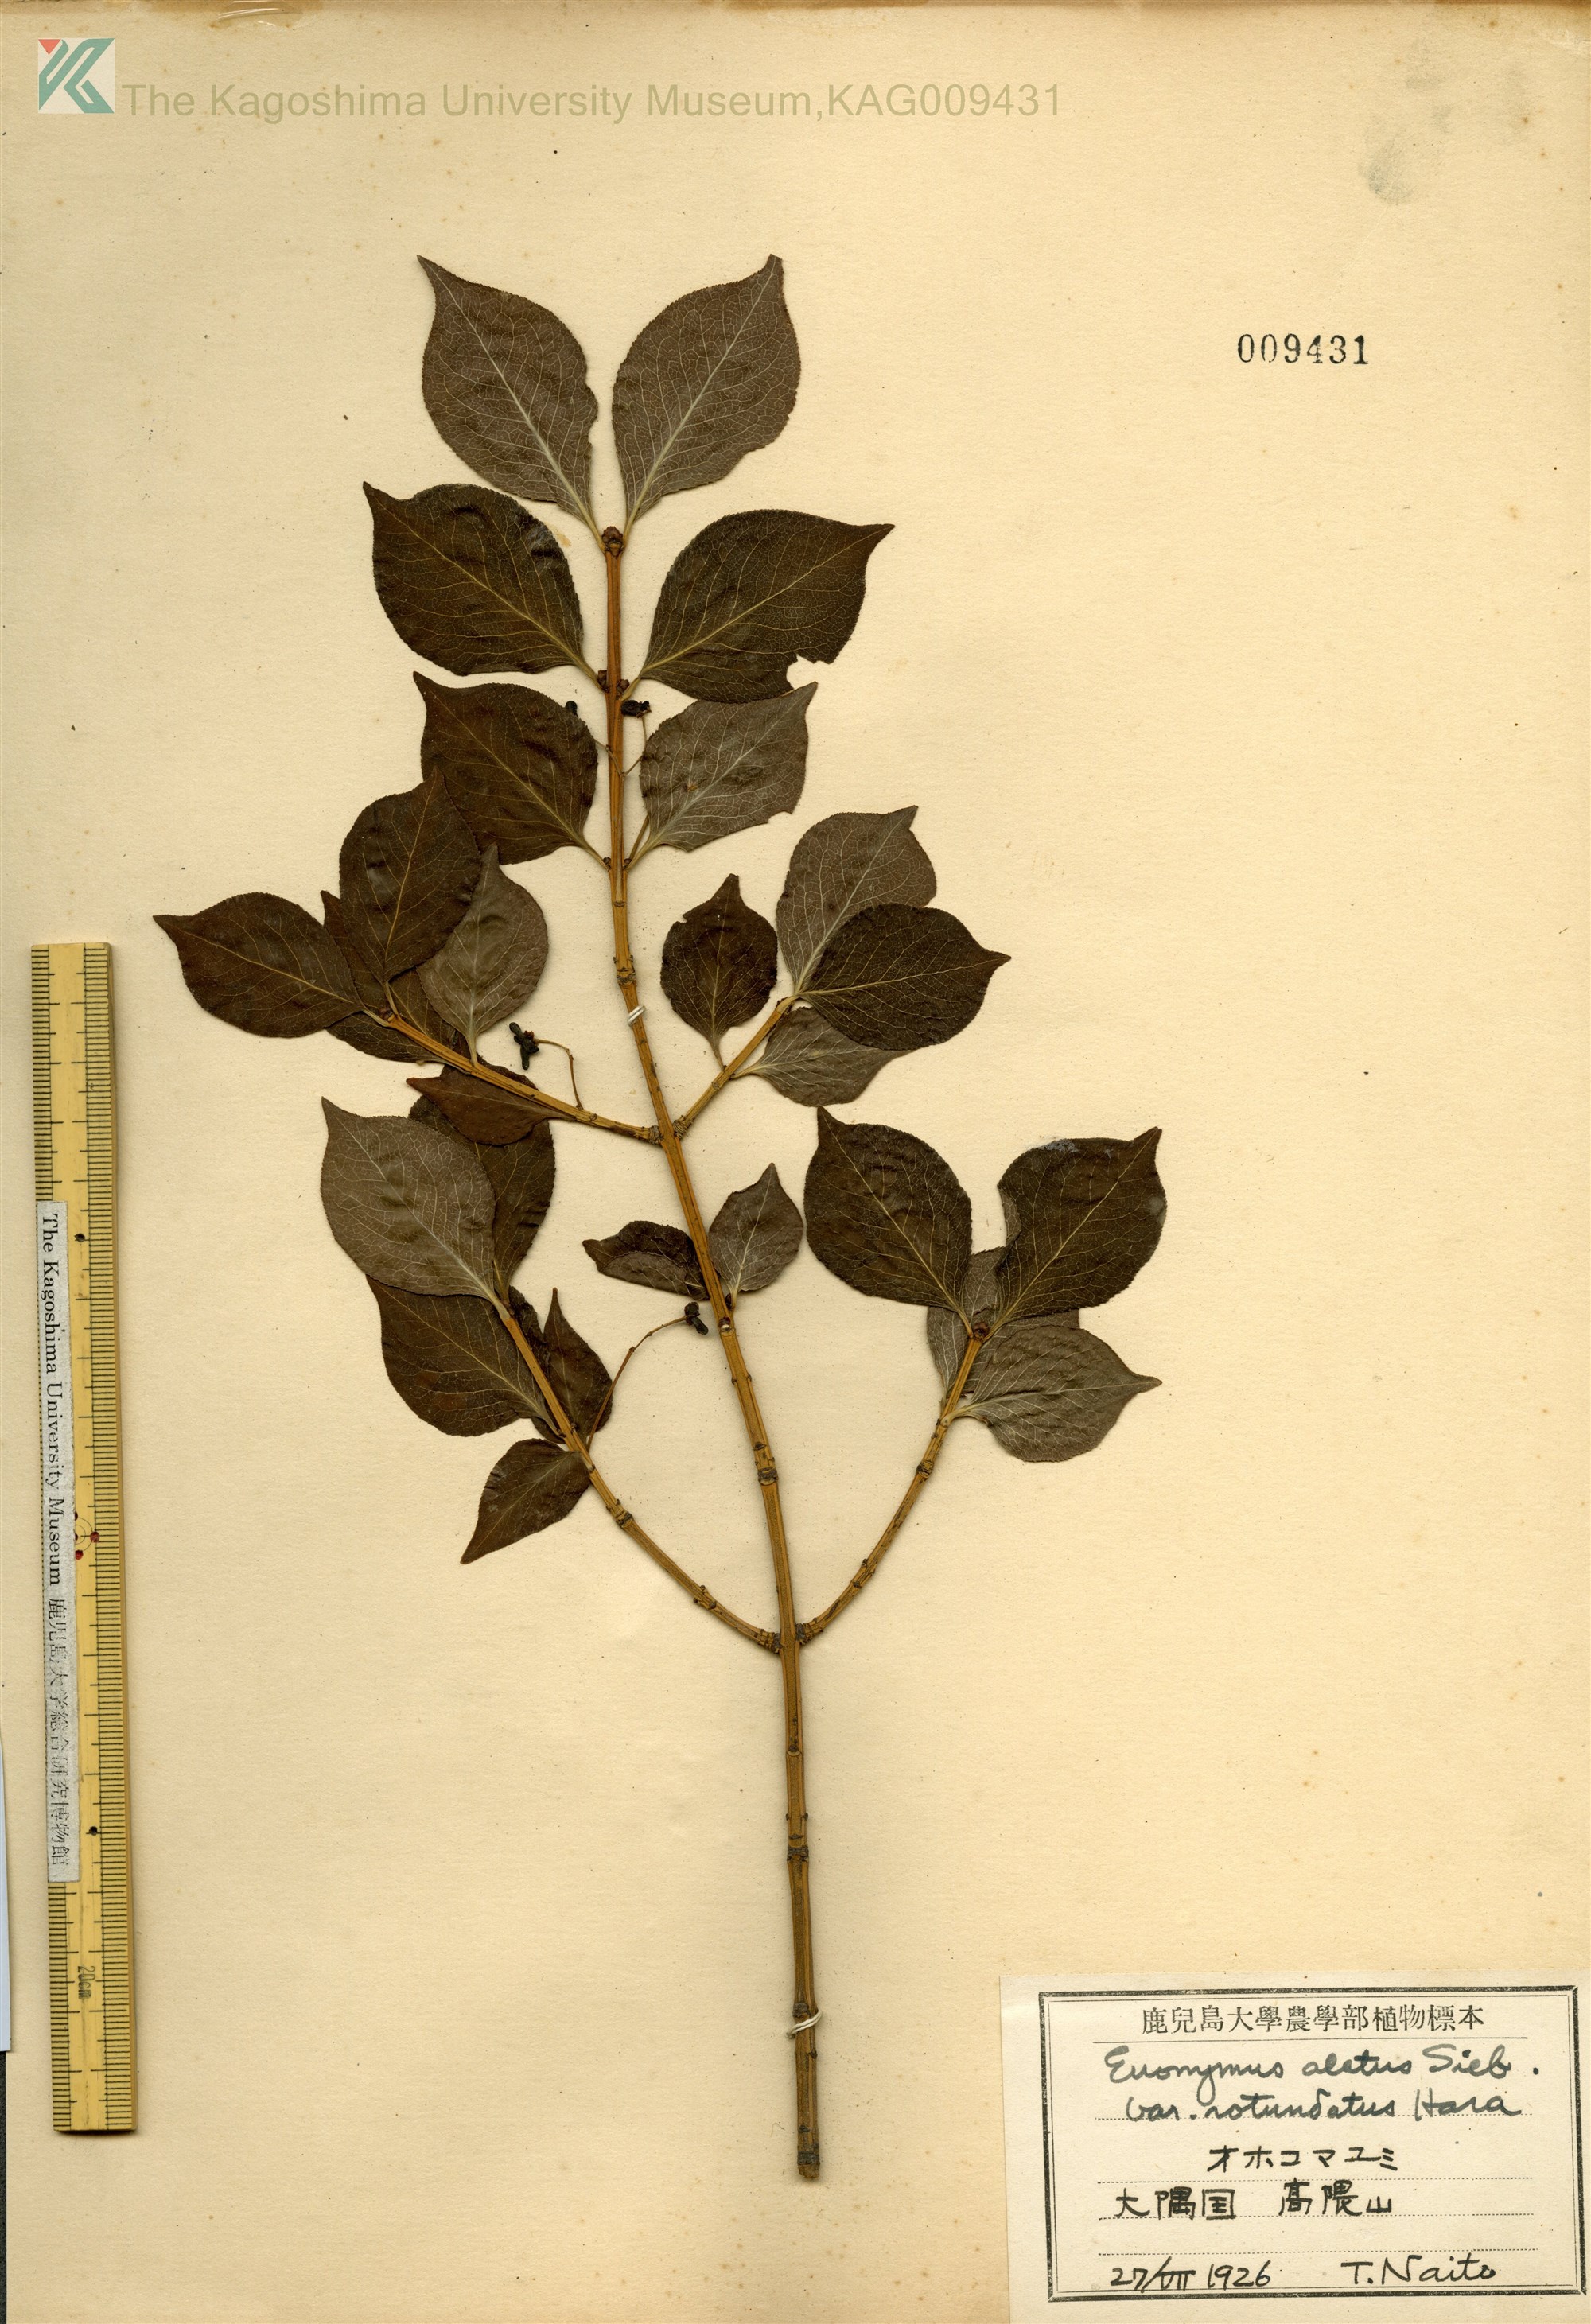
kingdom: Plantae
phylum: Tracheophyta
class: Magnoliopsida
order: Celastrales
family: Celastraceae
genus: Euonymus
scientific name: Euonymus alatus
